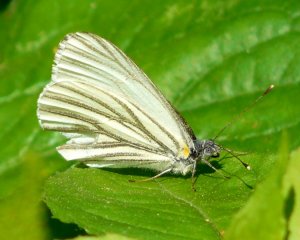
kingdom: Animalia
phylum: Arthropoda
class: Insecta
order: Lepidoptera
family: Pieridae
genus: Pieris
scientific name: Pieris oleracea
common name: Mustard White
